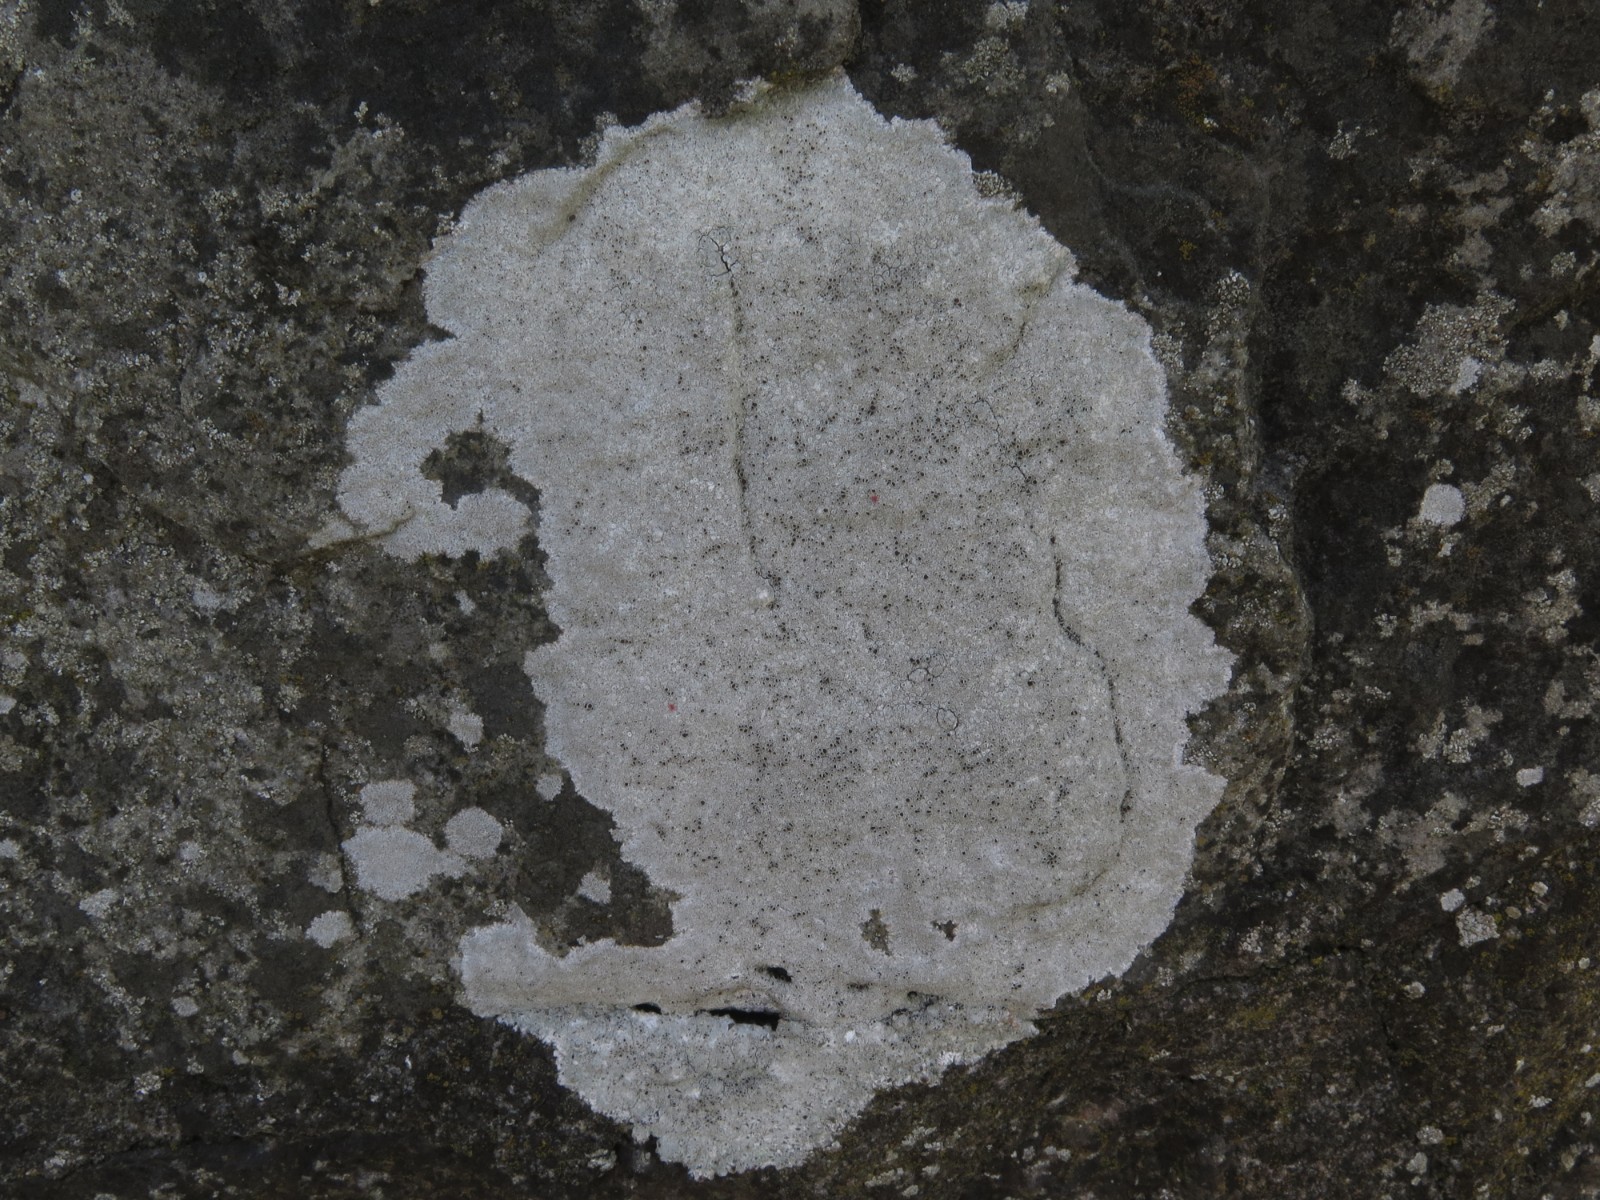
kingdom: Fungi
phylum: Ascomycota
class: Lecanoromycetes
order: Lecanorales
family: Lecanoraceae
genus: Glaucomaria
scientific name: Glaucomaria rupicola
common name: stengærde-kantskivelav
